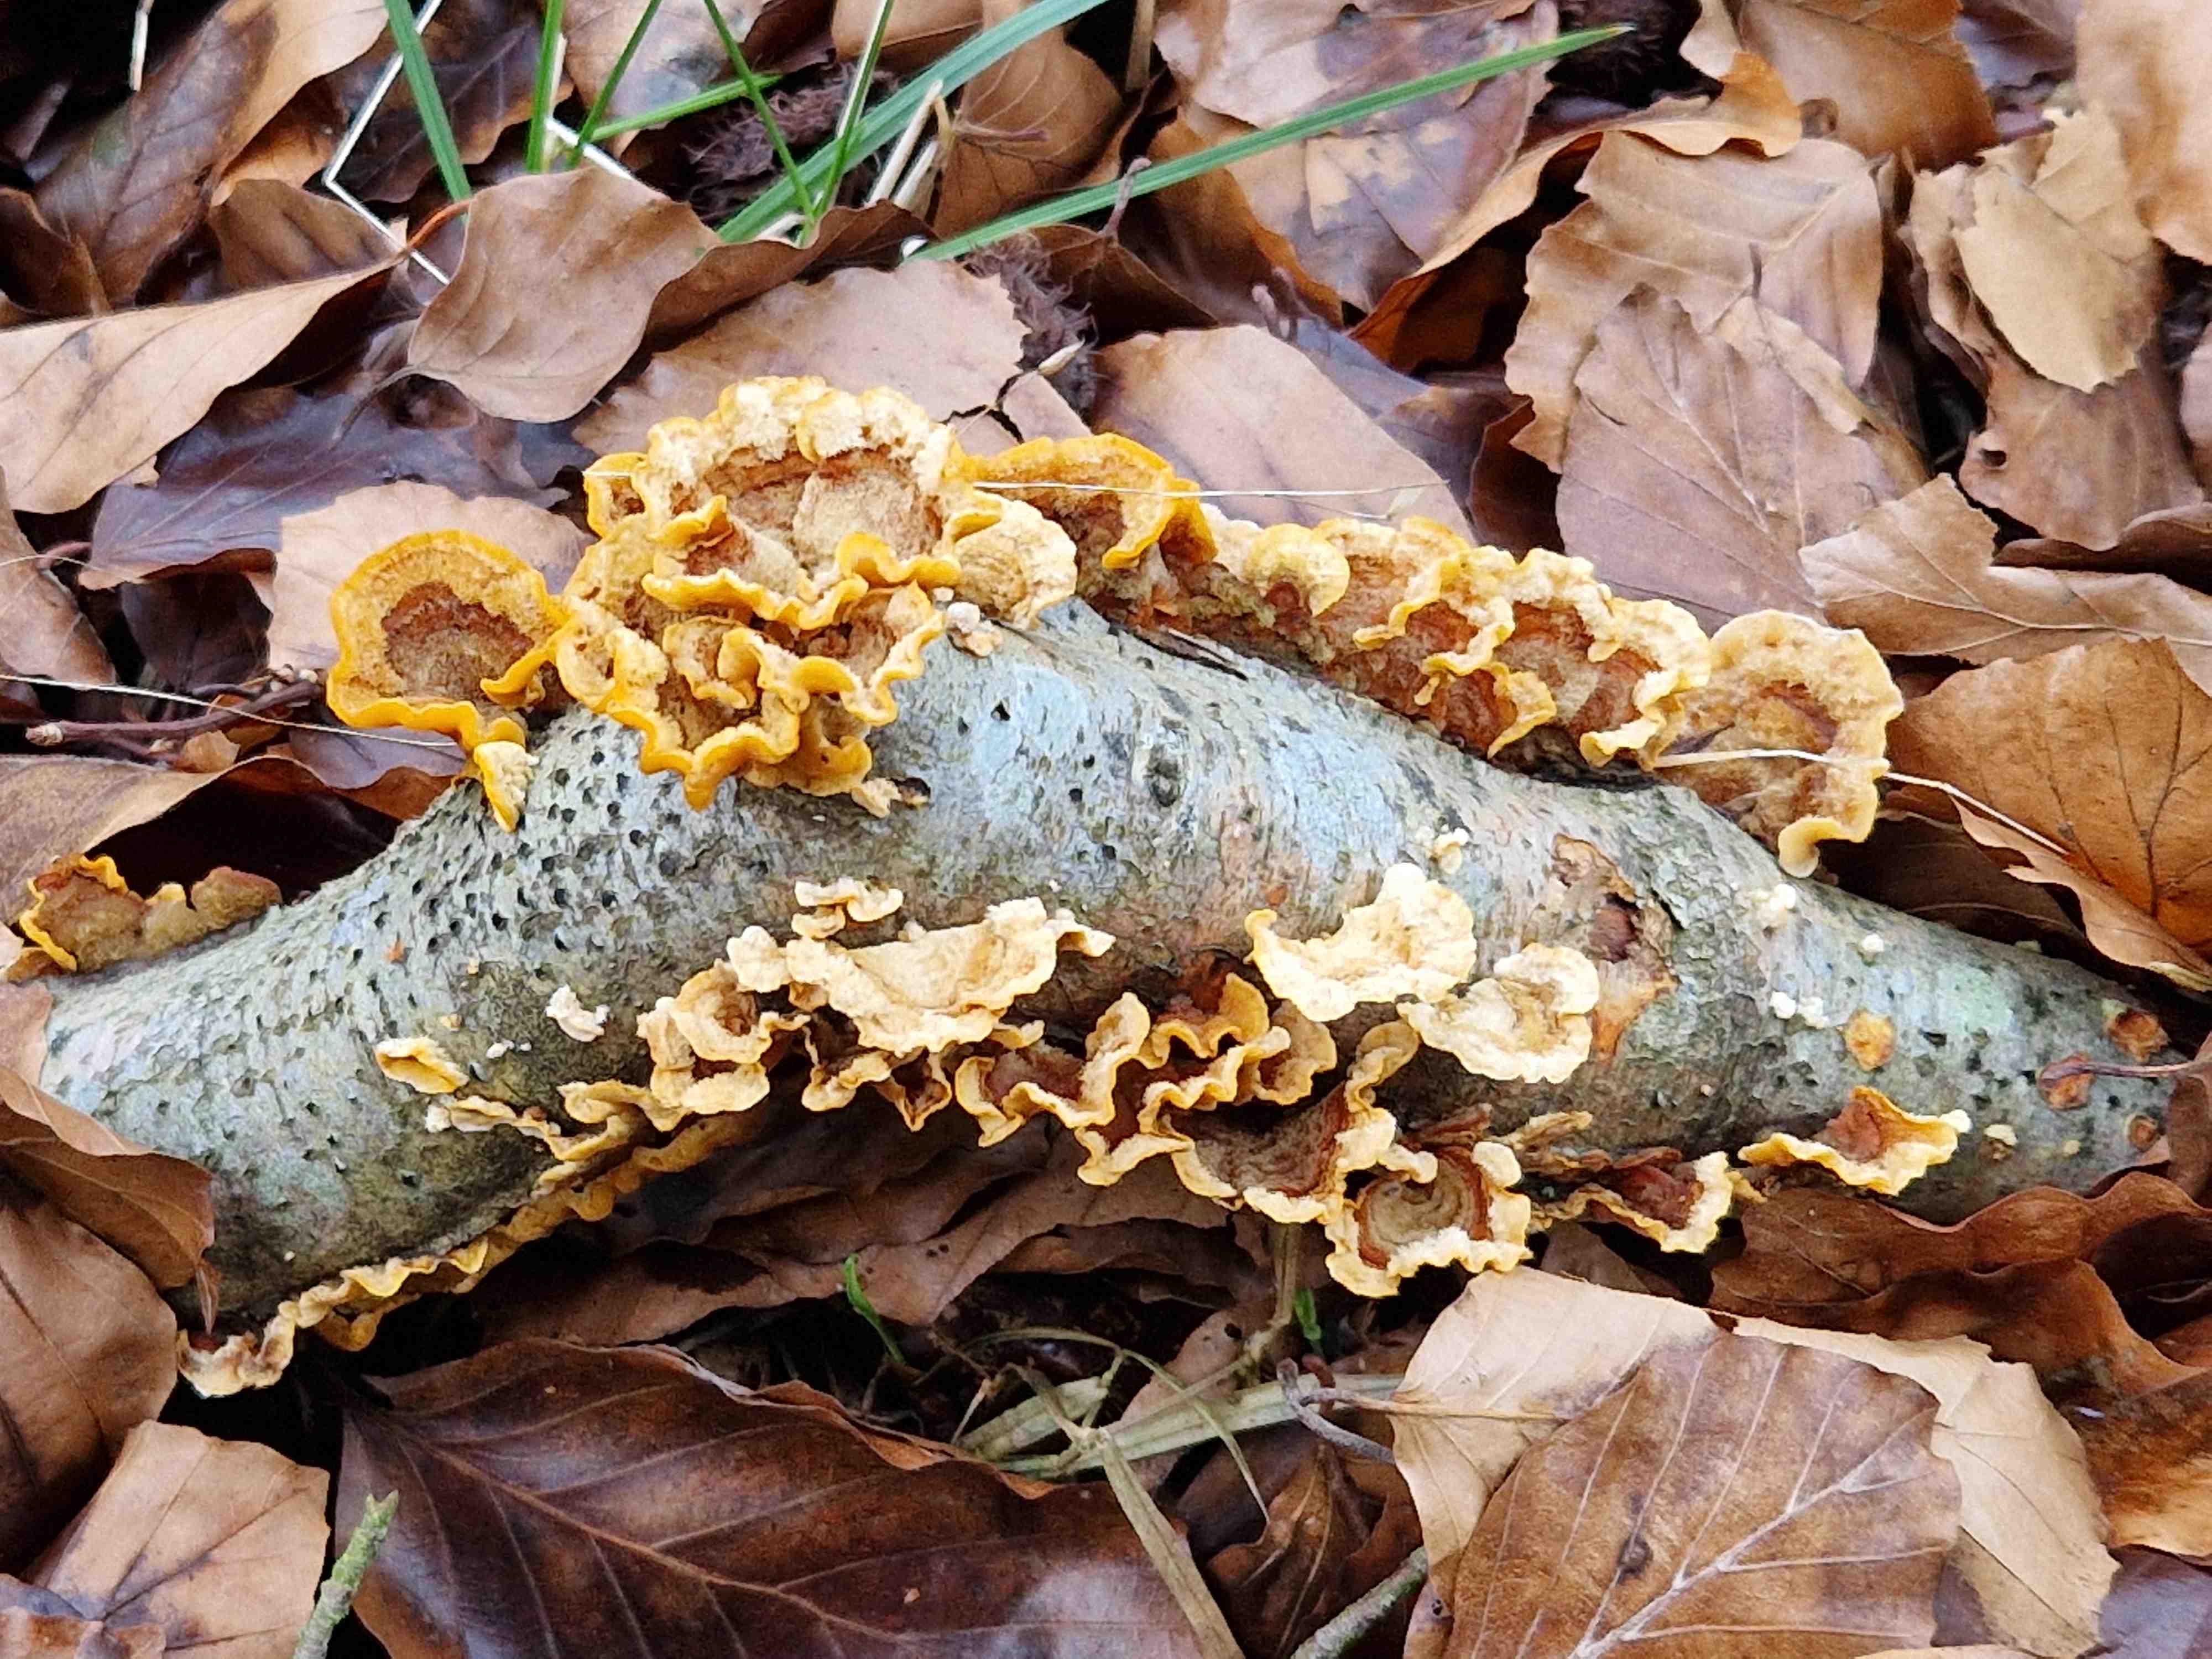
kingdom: Fungi
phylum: Basidiomycota
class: Agaricomycetes
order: Russulales
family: Stereaceae
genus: Stereum
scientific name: Stereum hirsutum
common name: håret lædersvamp
